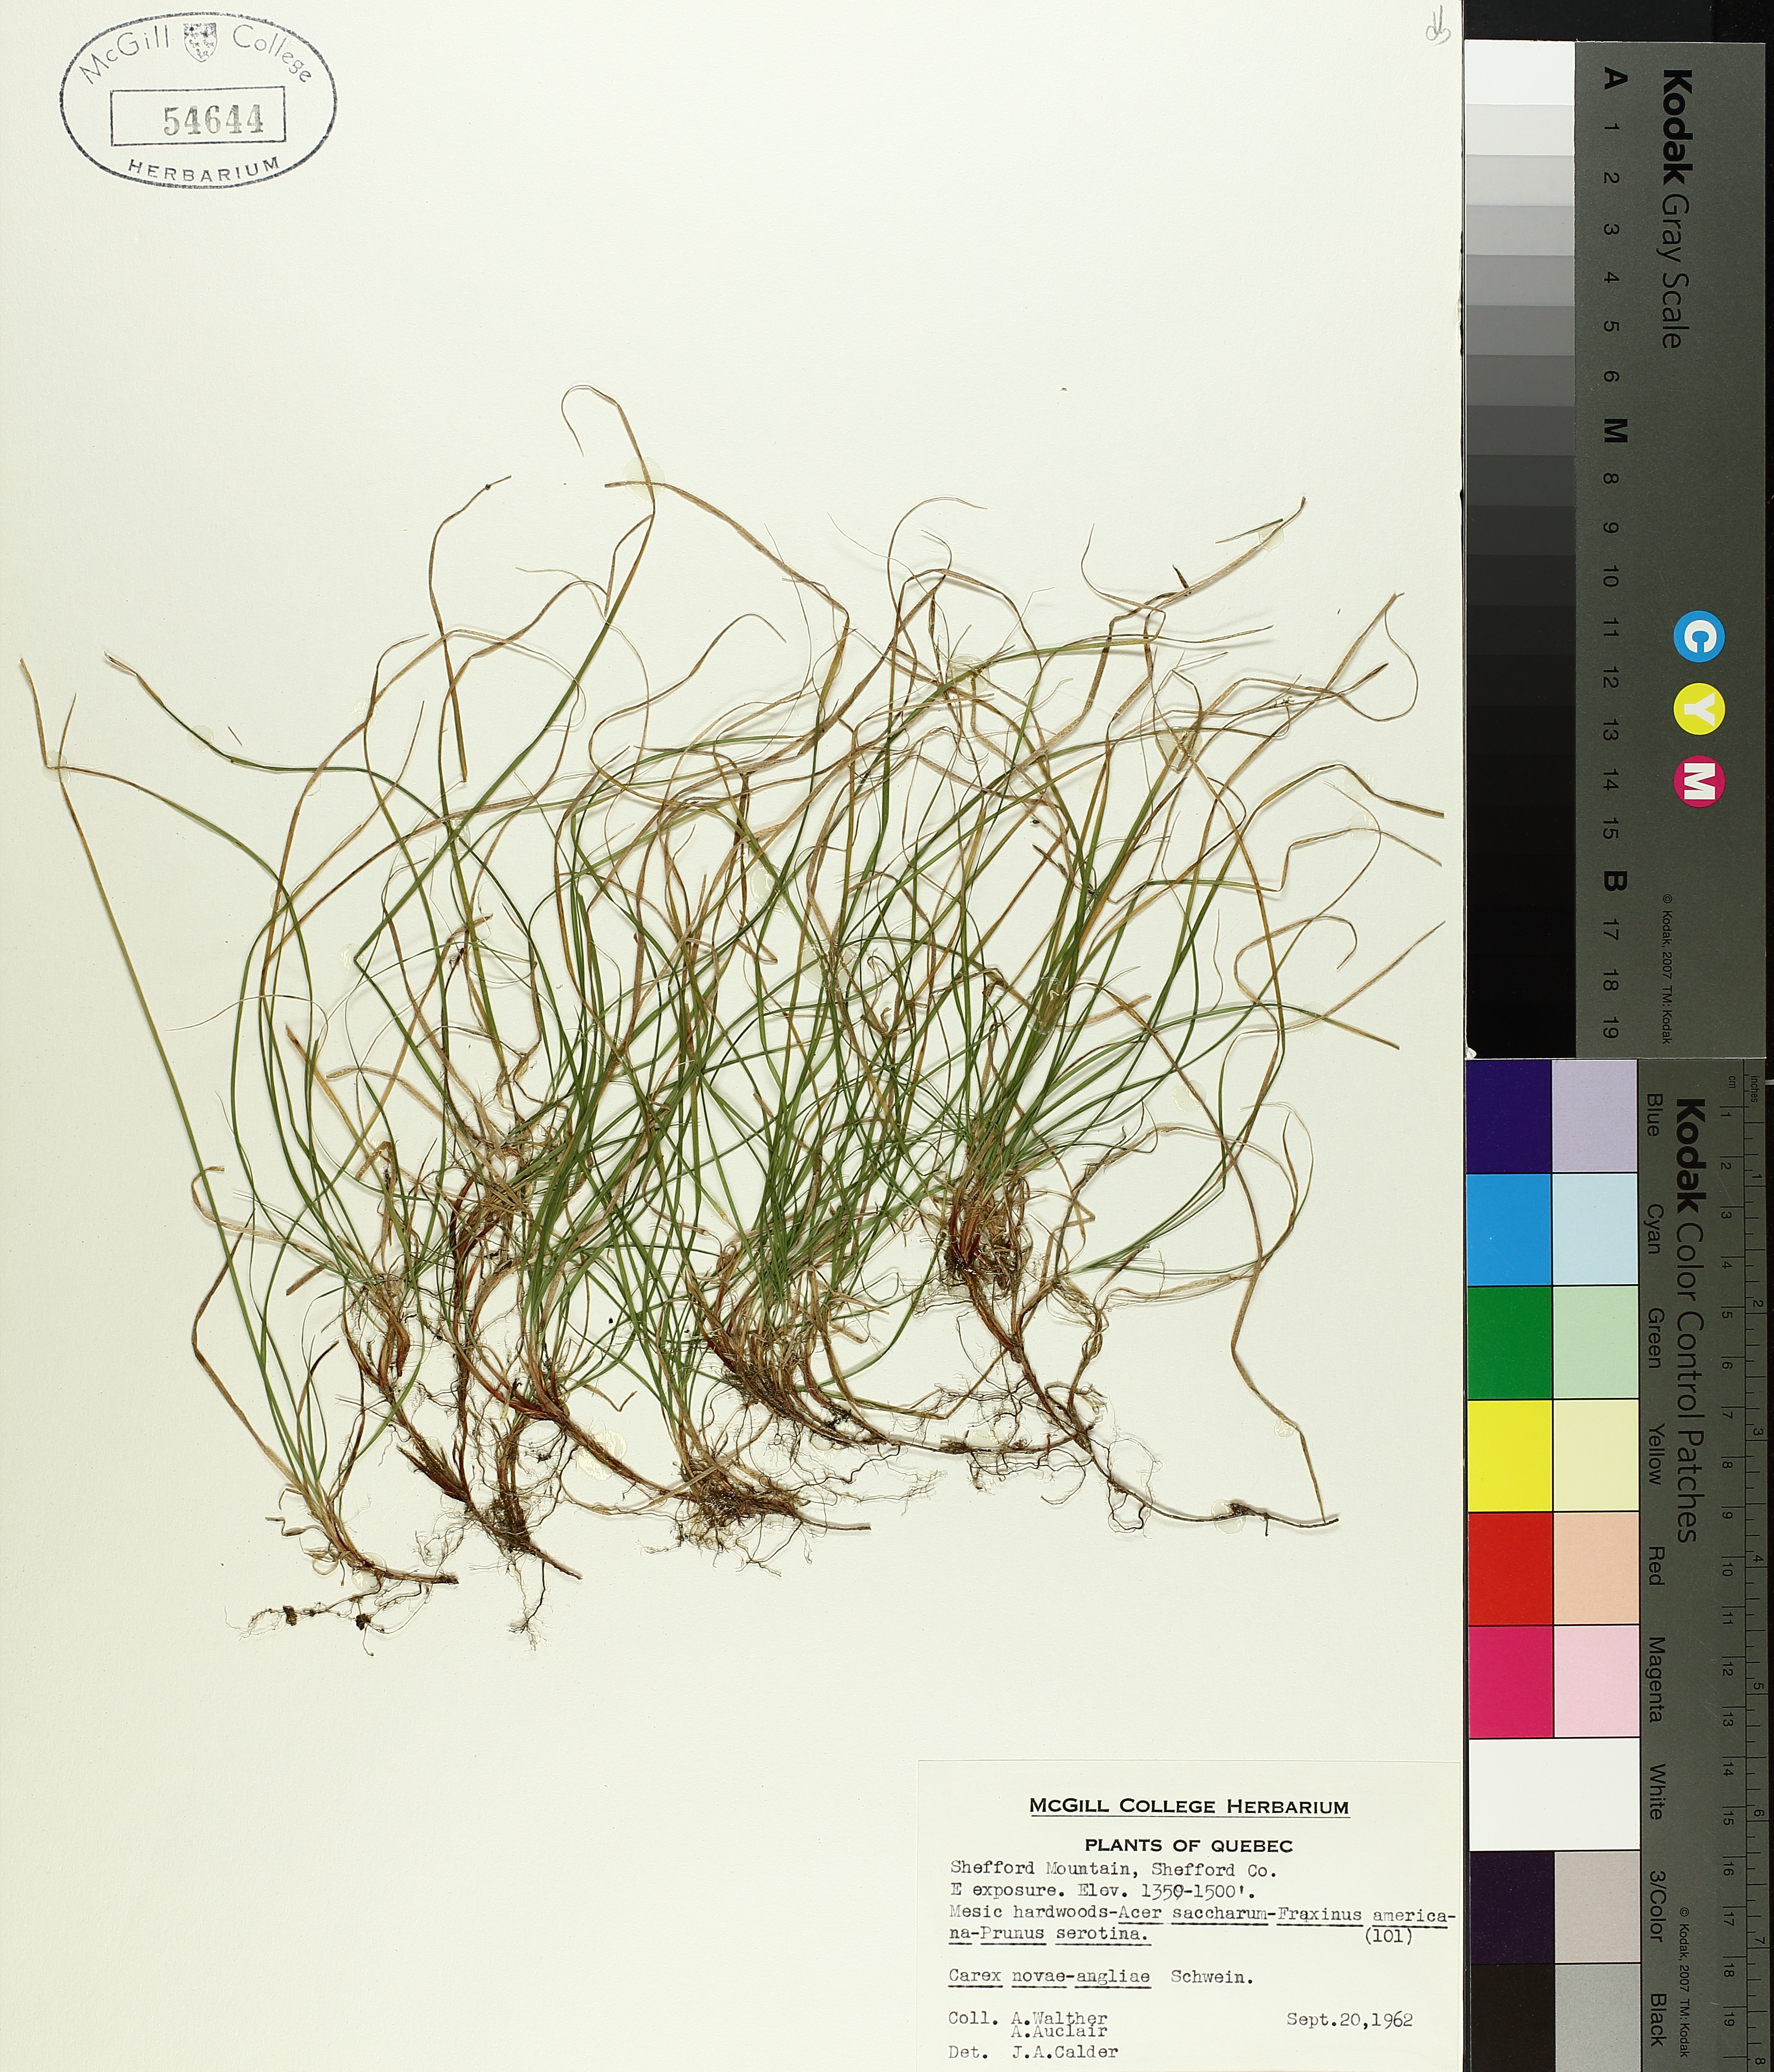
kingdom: Plantae
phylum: Tracheophyta
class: Liliopsida
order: Poales
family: Cyperaceae
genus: Carex
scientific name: Carex novae-angliae
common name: New england sedge
